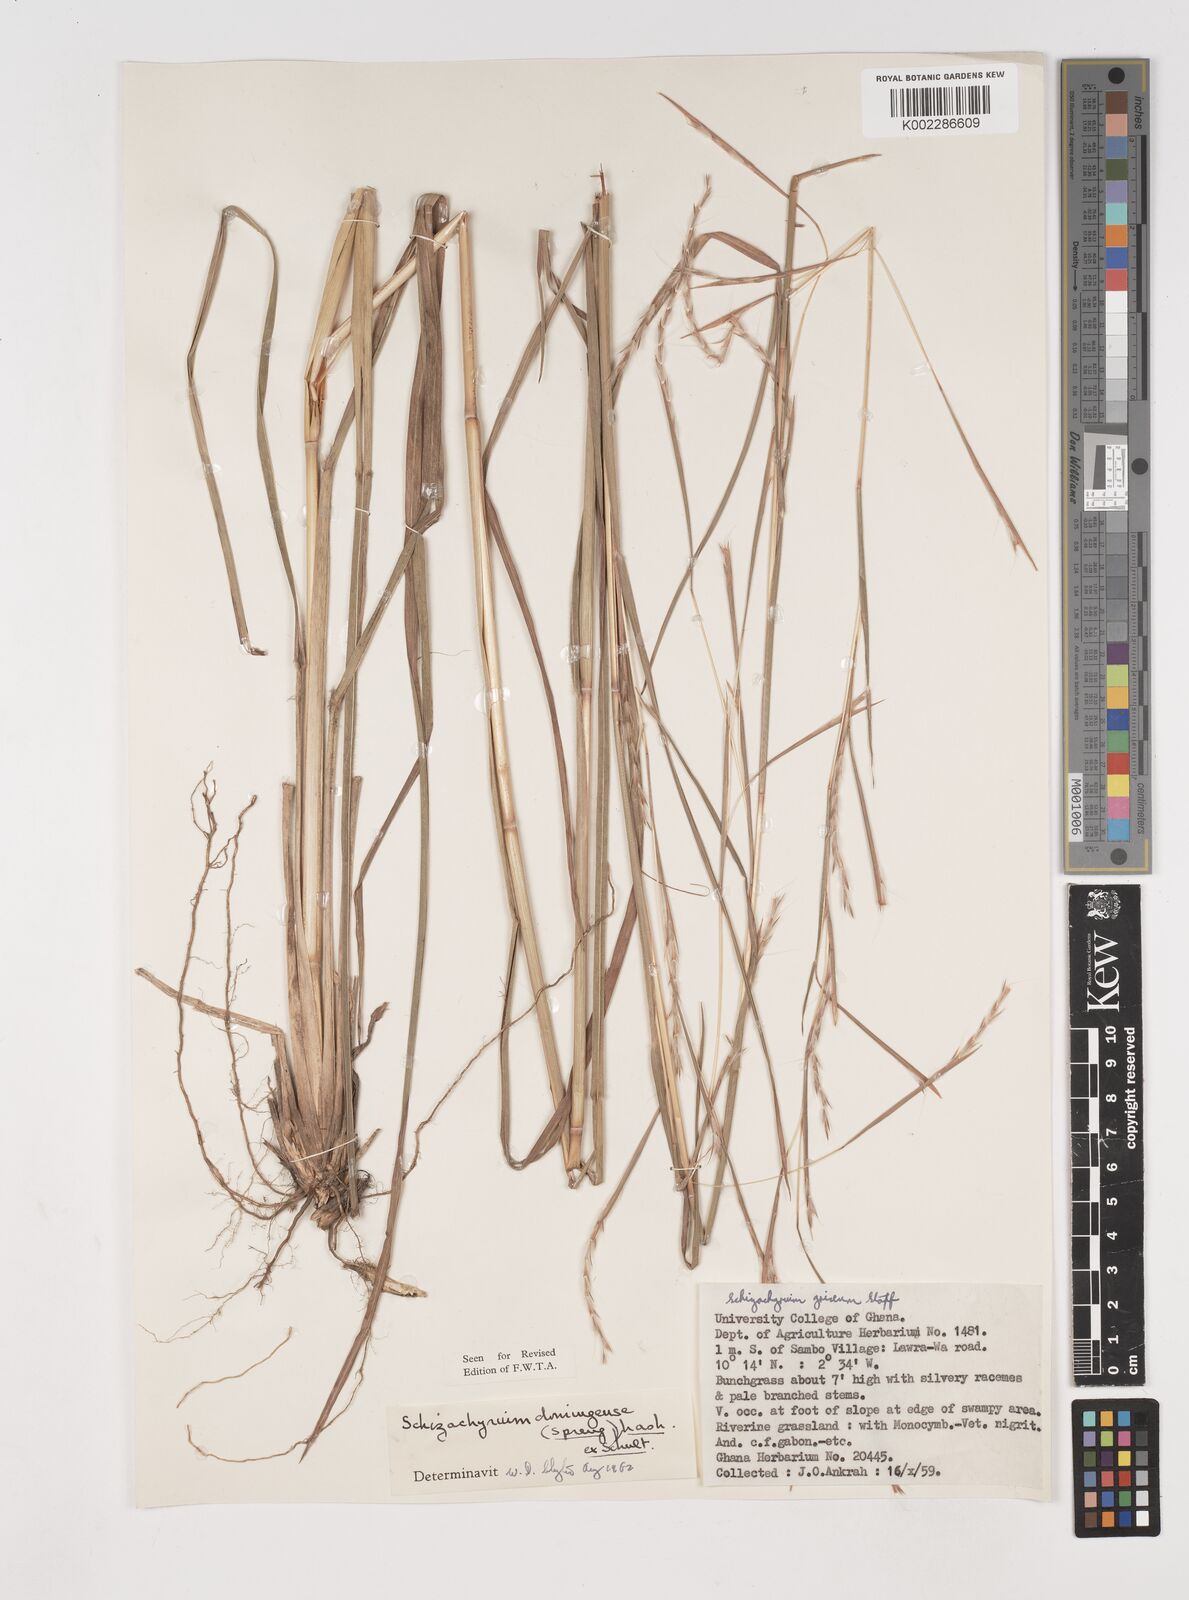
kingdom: Plantae
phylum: Tracheophyta
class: Liliopsida
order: Poales
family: Poaceae
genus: Schizachyrium
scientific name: Schizachyrium sanguineum
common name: Crimson bluestem
